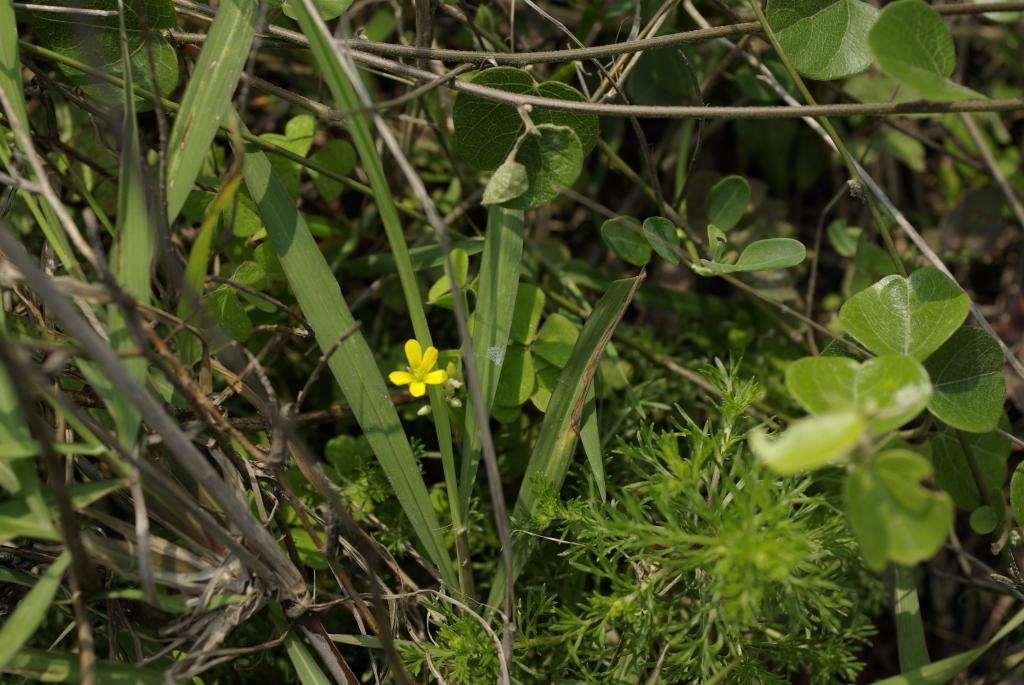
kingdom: Plantae
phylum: Tracheophyta
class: Magnoliopsida
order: Oxalidales
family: Oxalidaceae
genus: Oxalis
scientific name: Oxalis corniculata
